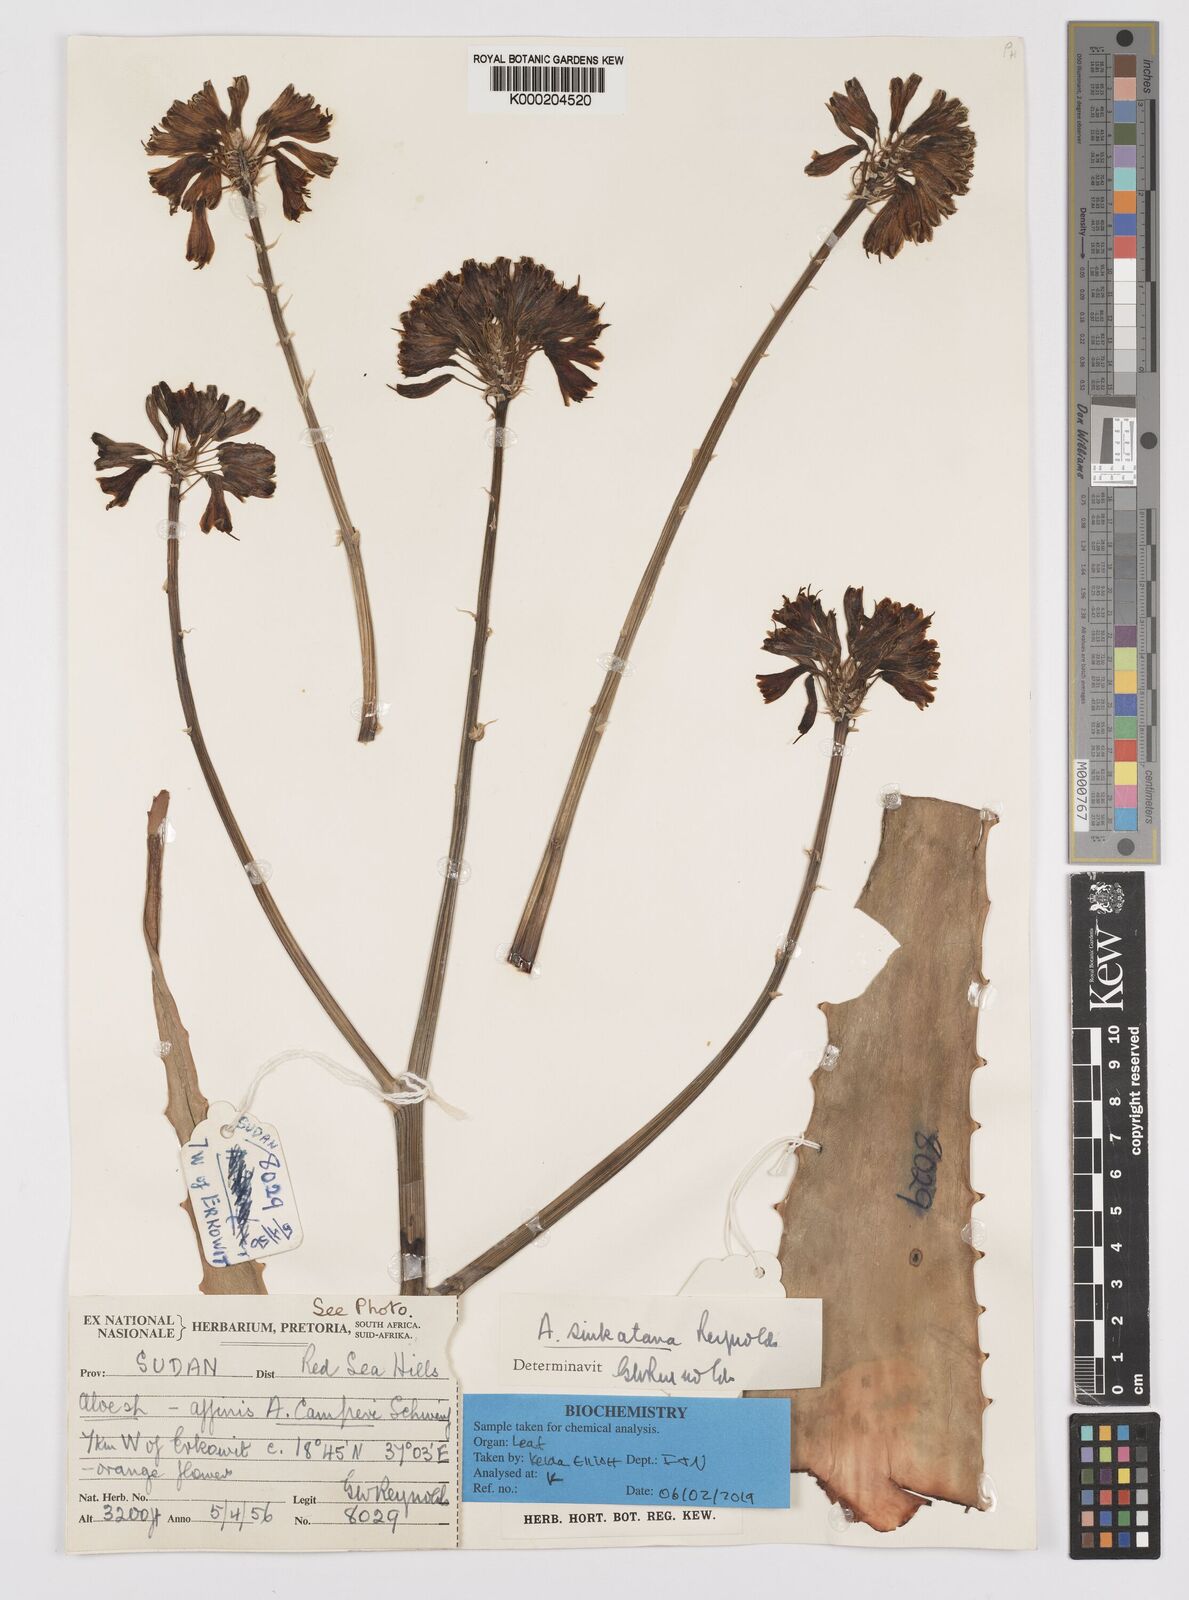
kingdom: Plantae
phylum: Tracheophyta
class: Liliopsida
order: Asparagales
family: Asphodelaceae
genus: Aloe
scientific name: Aloe sinkatana
